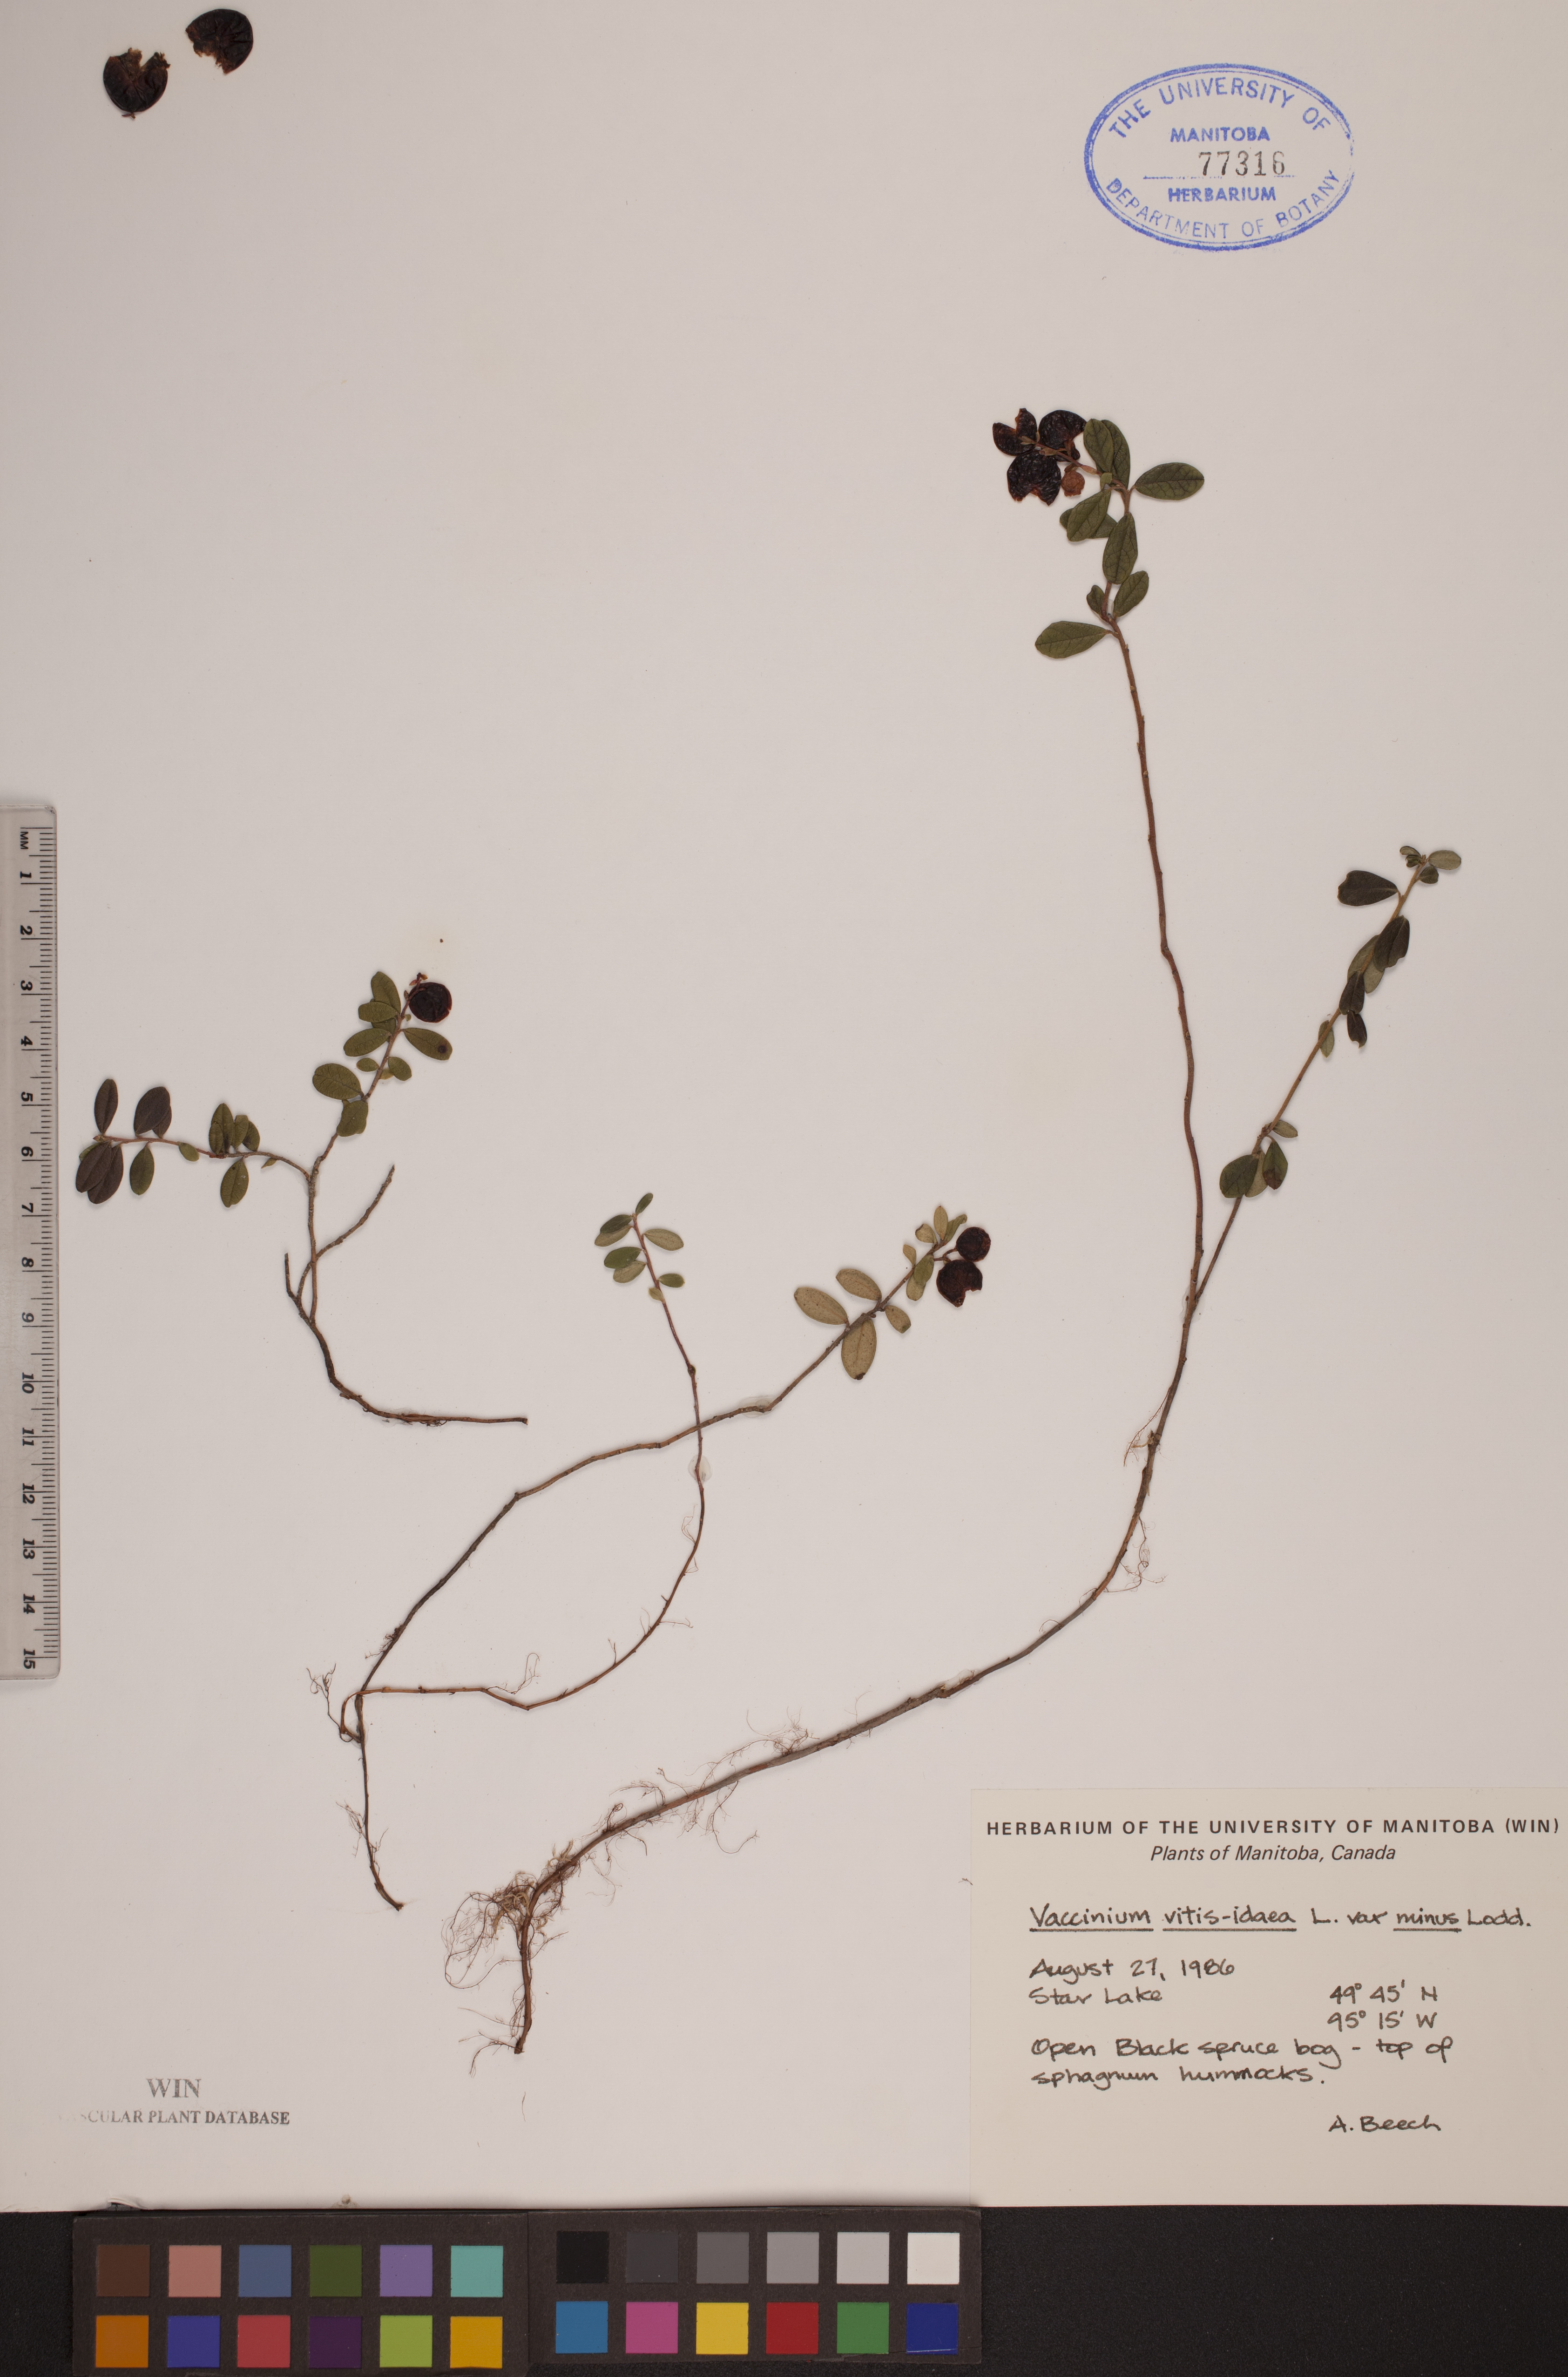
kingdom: Plantae
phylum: Tracheophyta
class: Magnoliopsida
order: Ericales
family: Ericaceae
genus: Vaccinium
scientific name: Vaccinium vitis-idaea
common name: Cowberry
